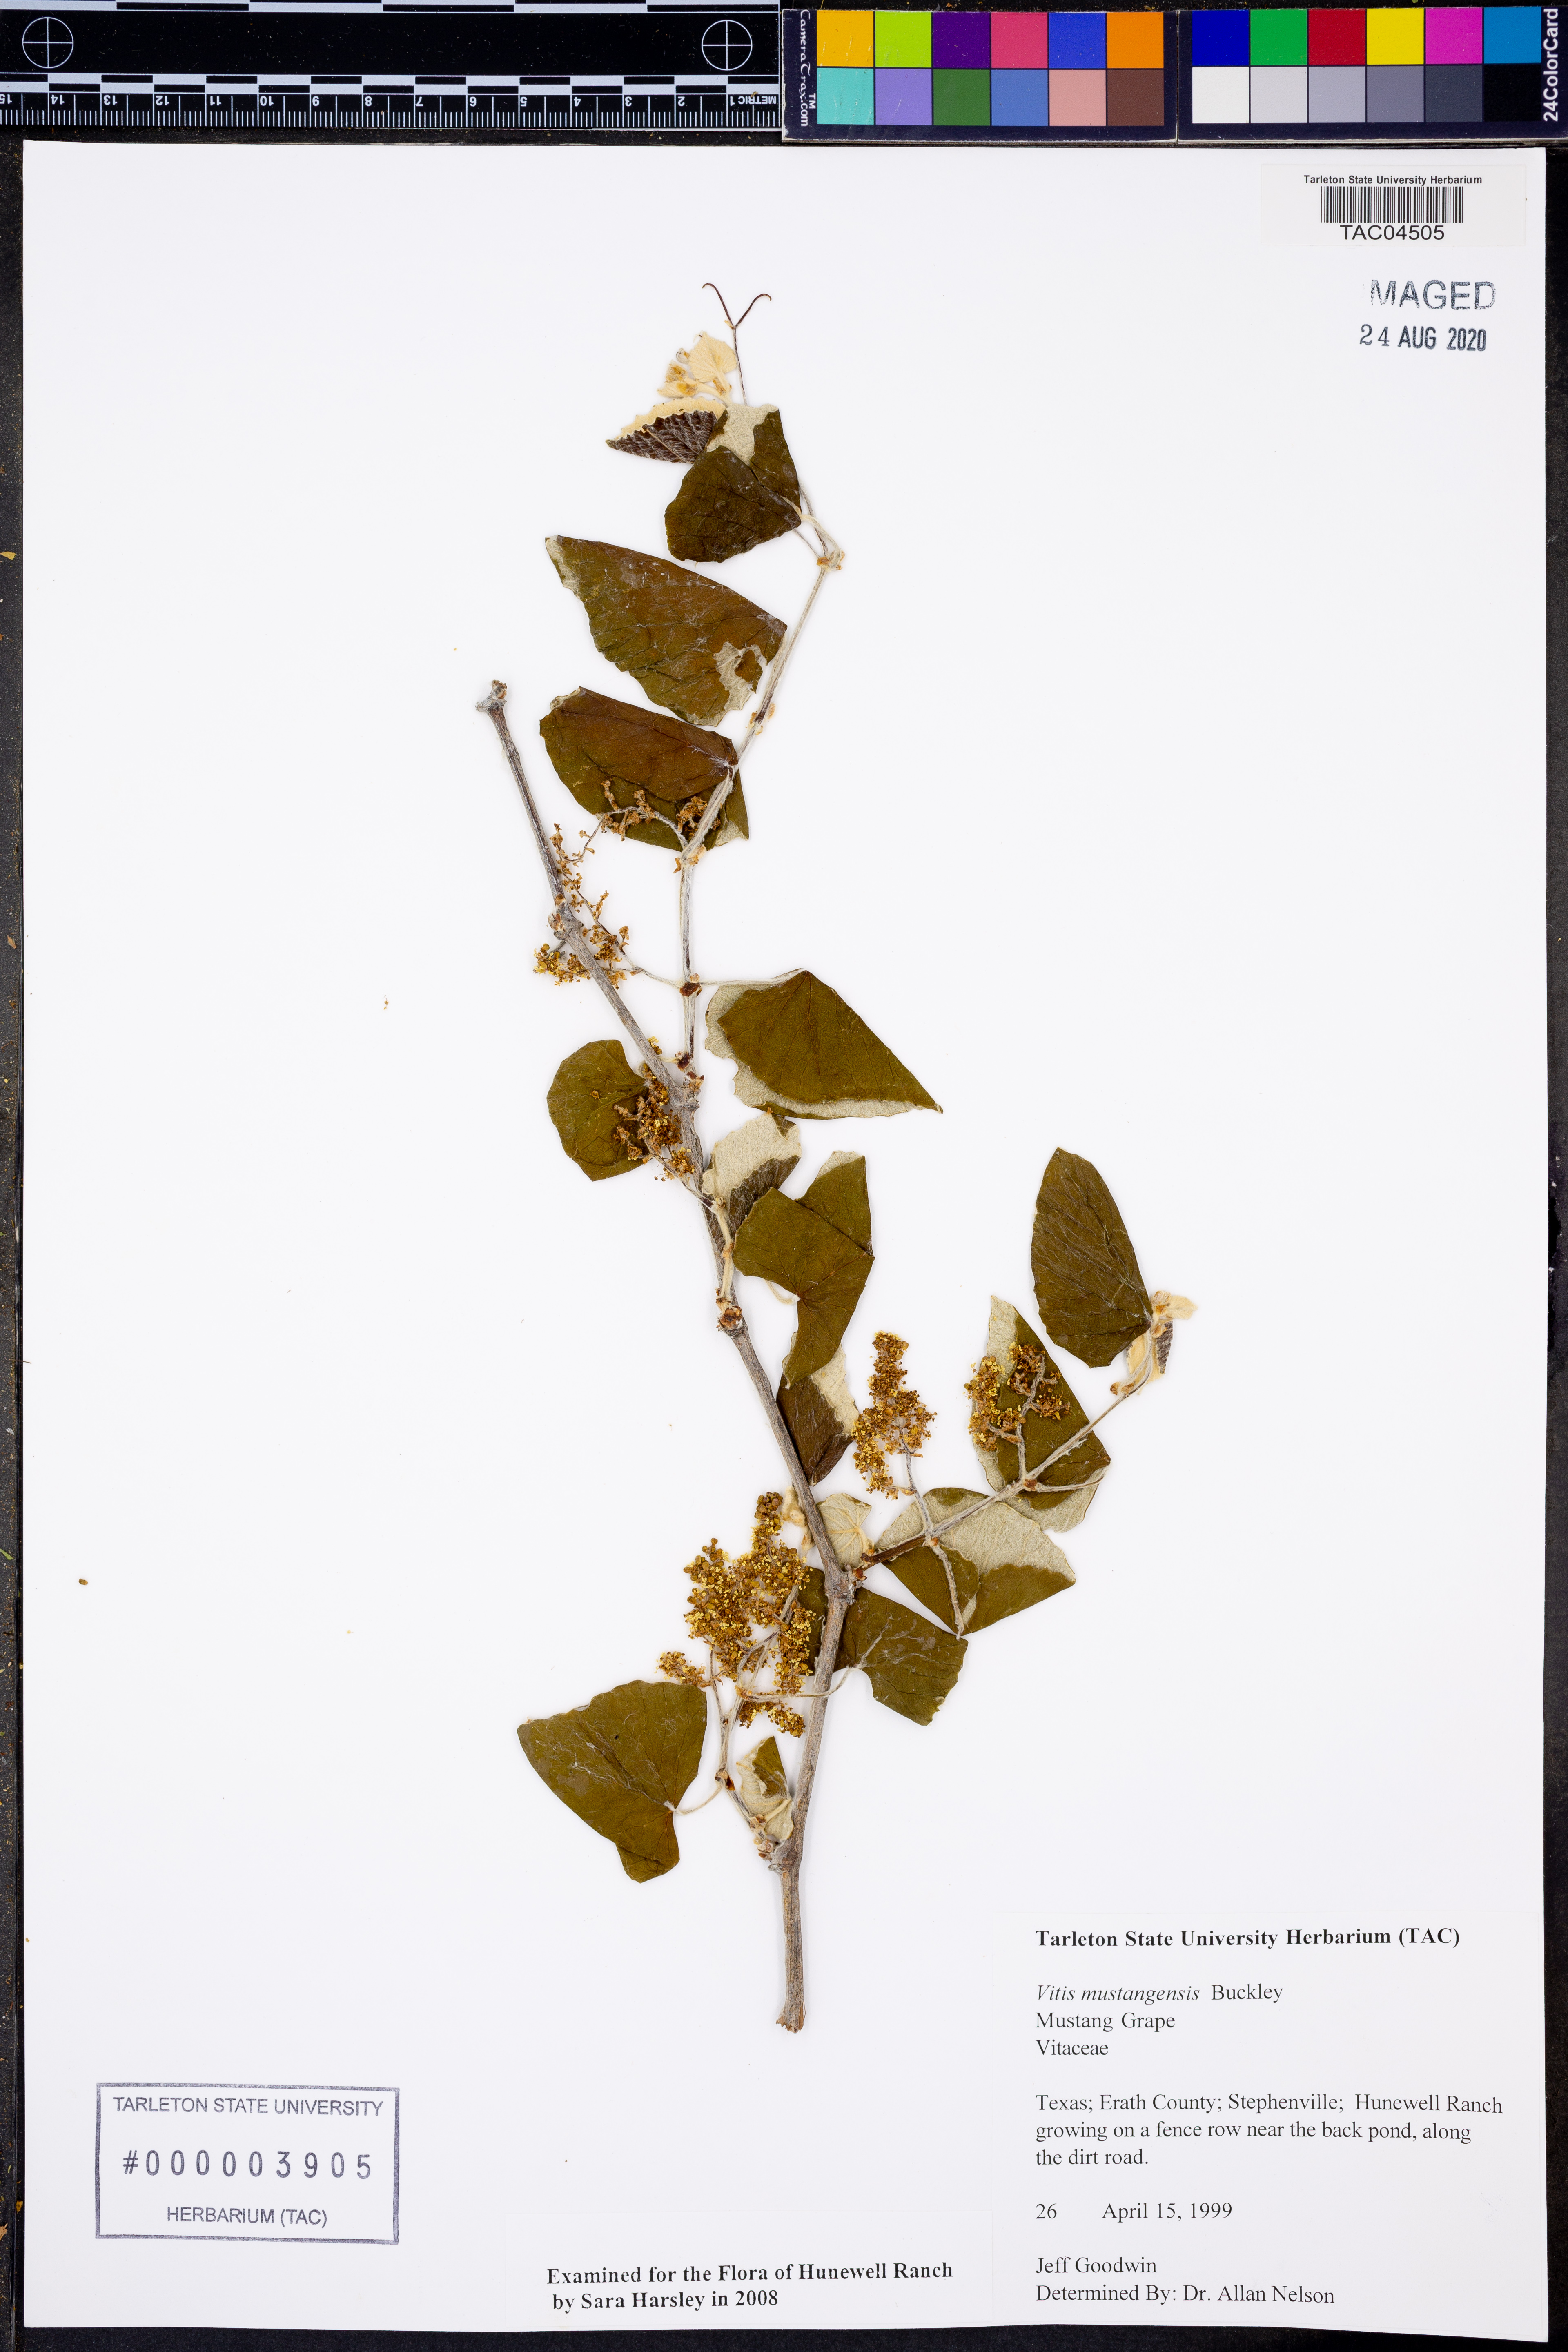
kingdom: Plantae
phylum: Tracheophyta
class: Magnoliopsida
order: Vitales
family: Vitaceae
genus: Vitis
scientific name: Vitis mustangensis
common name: Mustang grape
